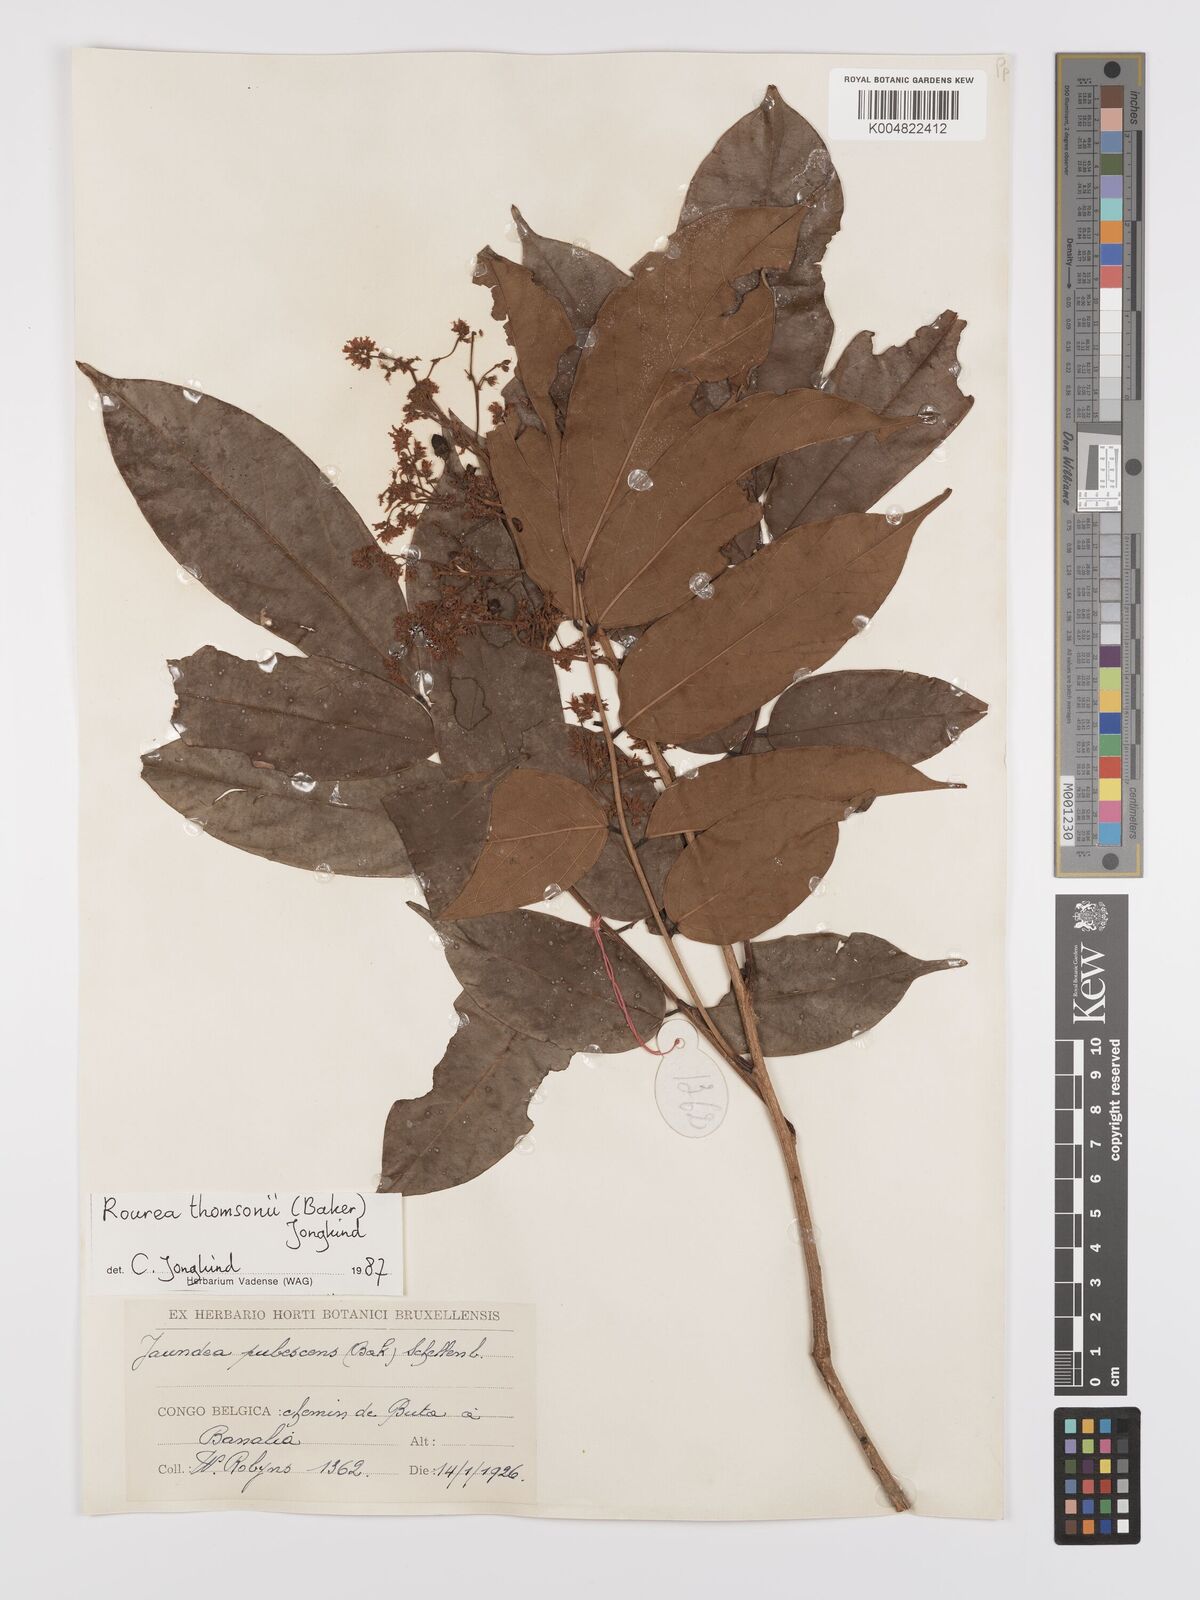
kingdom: Plantae
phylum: Tracheophyta
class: Magnoliopsida
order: Oxalidales
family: Connaraceae
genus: Rourea
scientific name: Rourea pubescens
